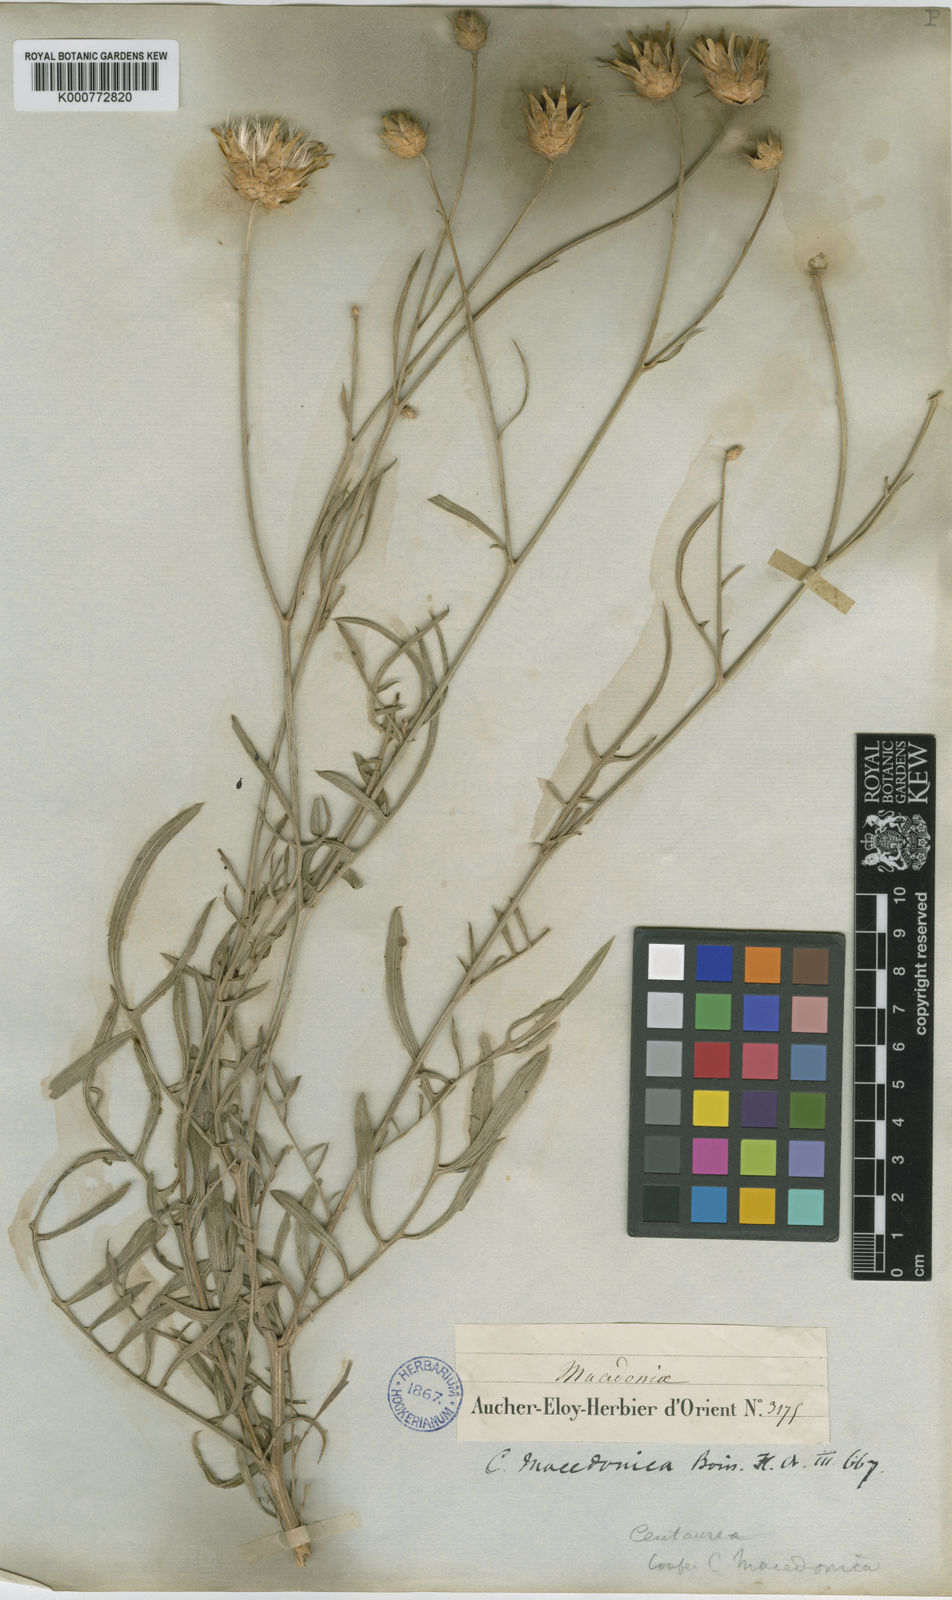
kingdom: Plantae
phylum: Tracheophyta
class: Magnoliopsida
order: Asterales
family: Asteraceae
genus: Centaurea
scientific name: Centaurea macedonica
